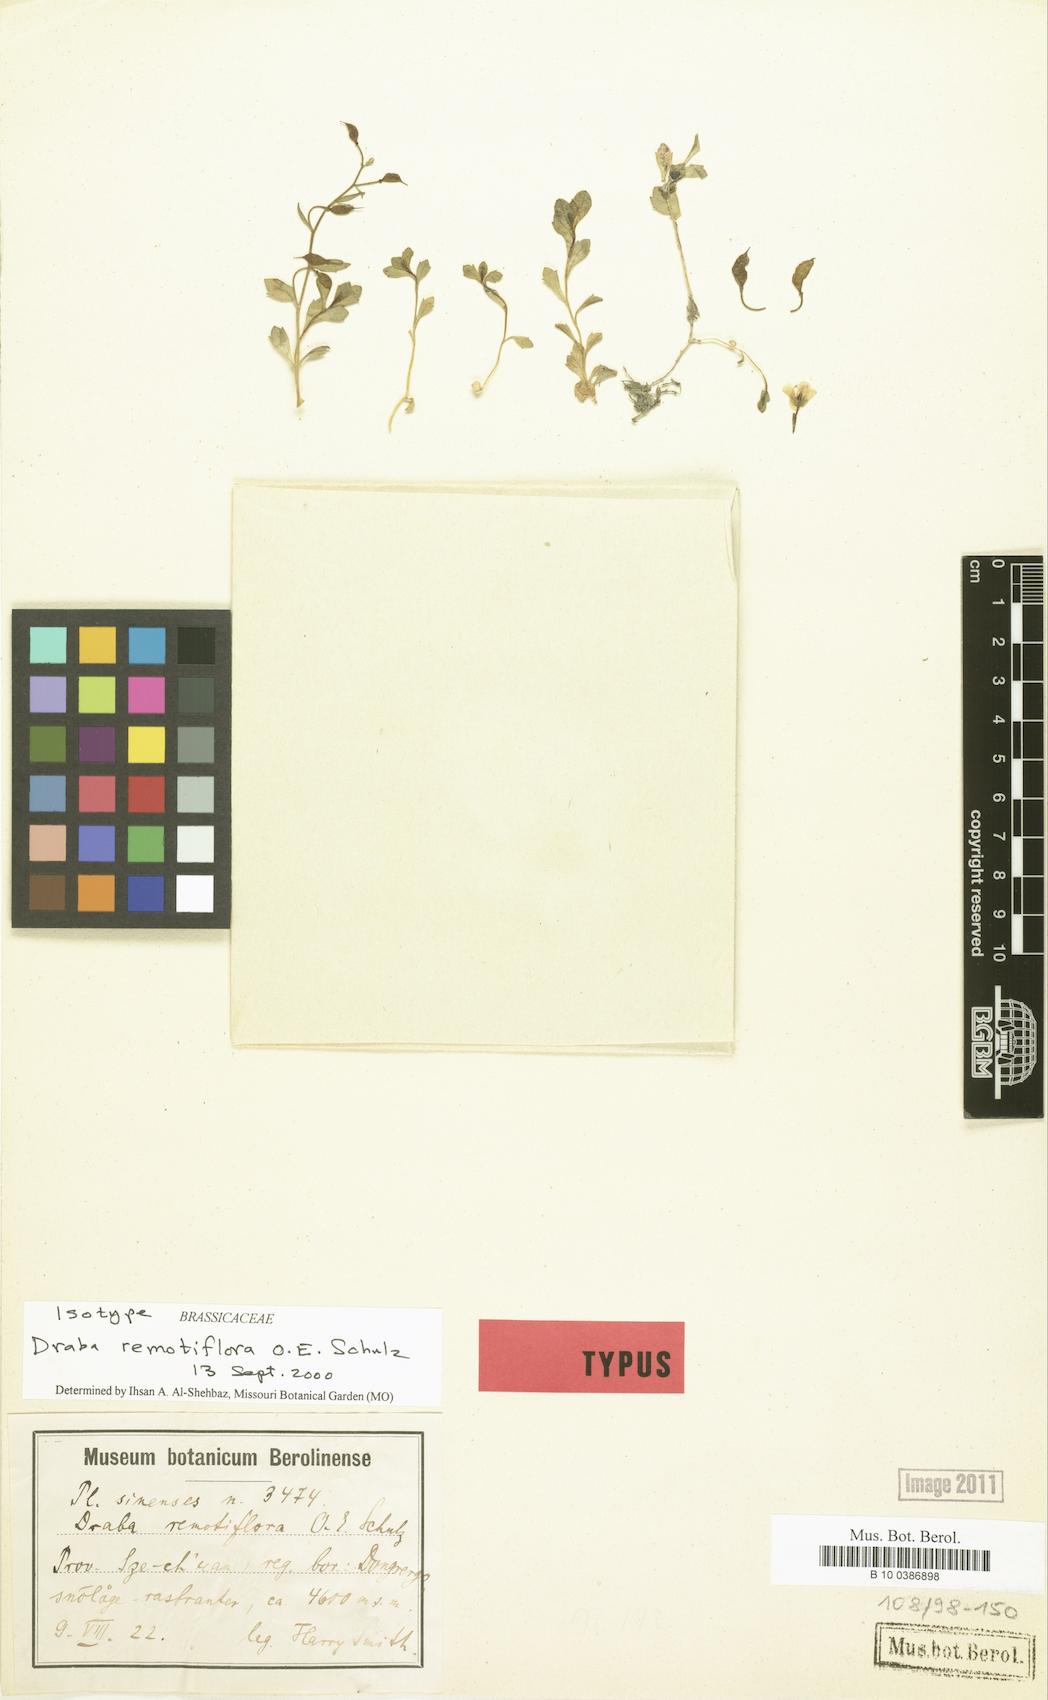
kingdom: Plantae
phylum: Tracheophyta
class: Magnoliopsida
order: Brassicales
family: Brassicaceae
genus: Draba
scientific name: Draba remotiflora
